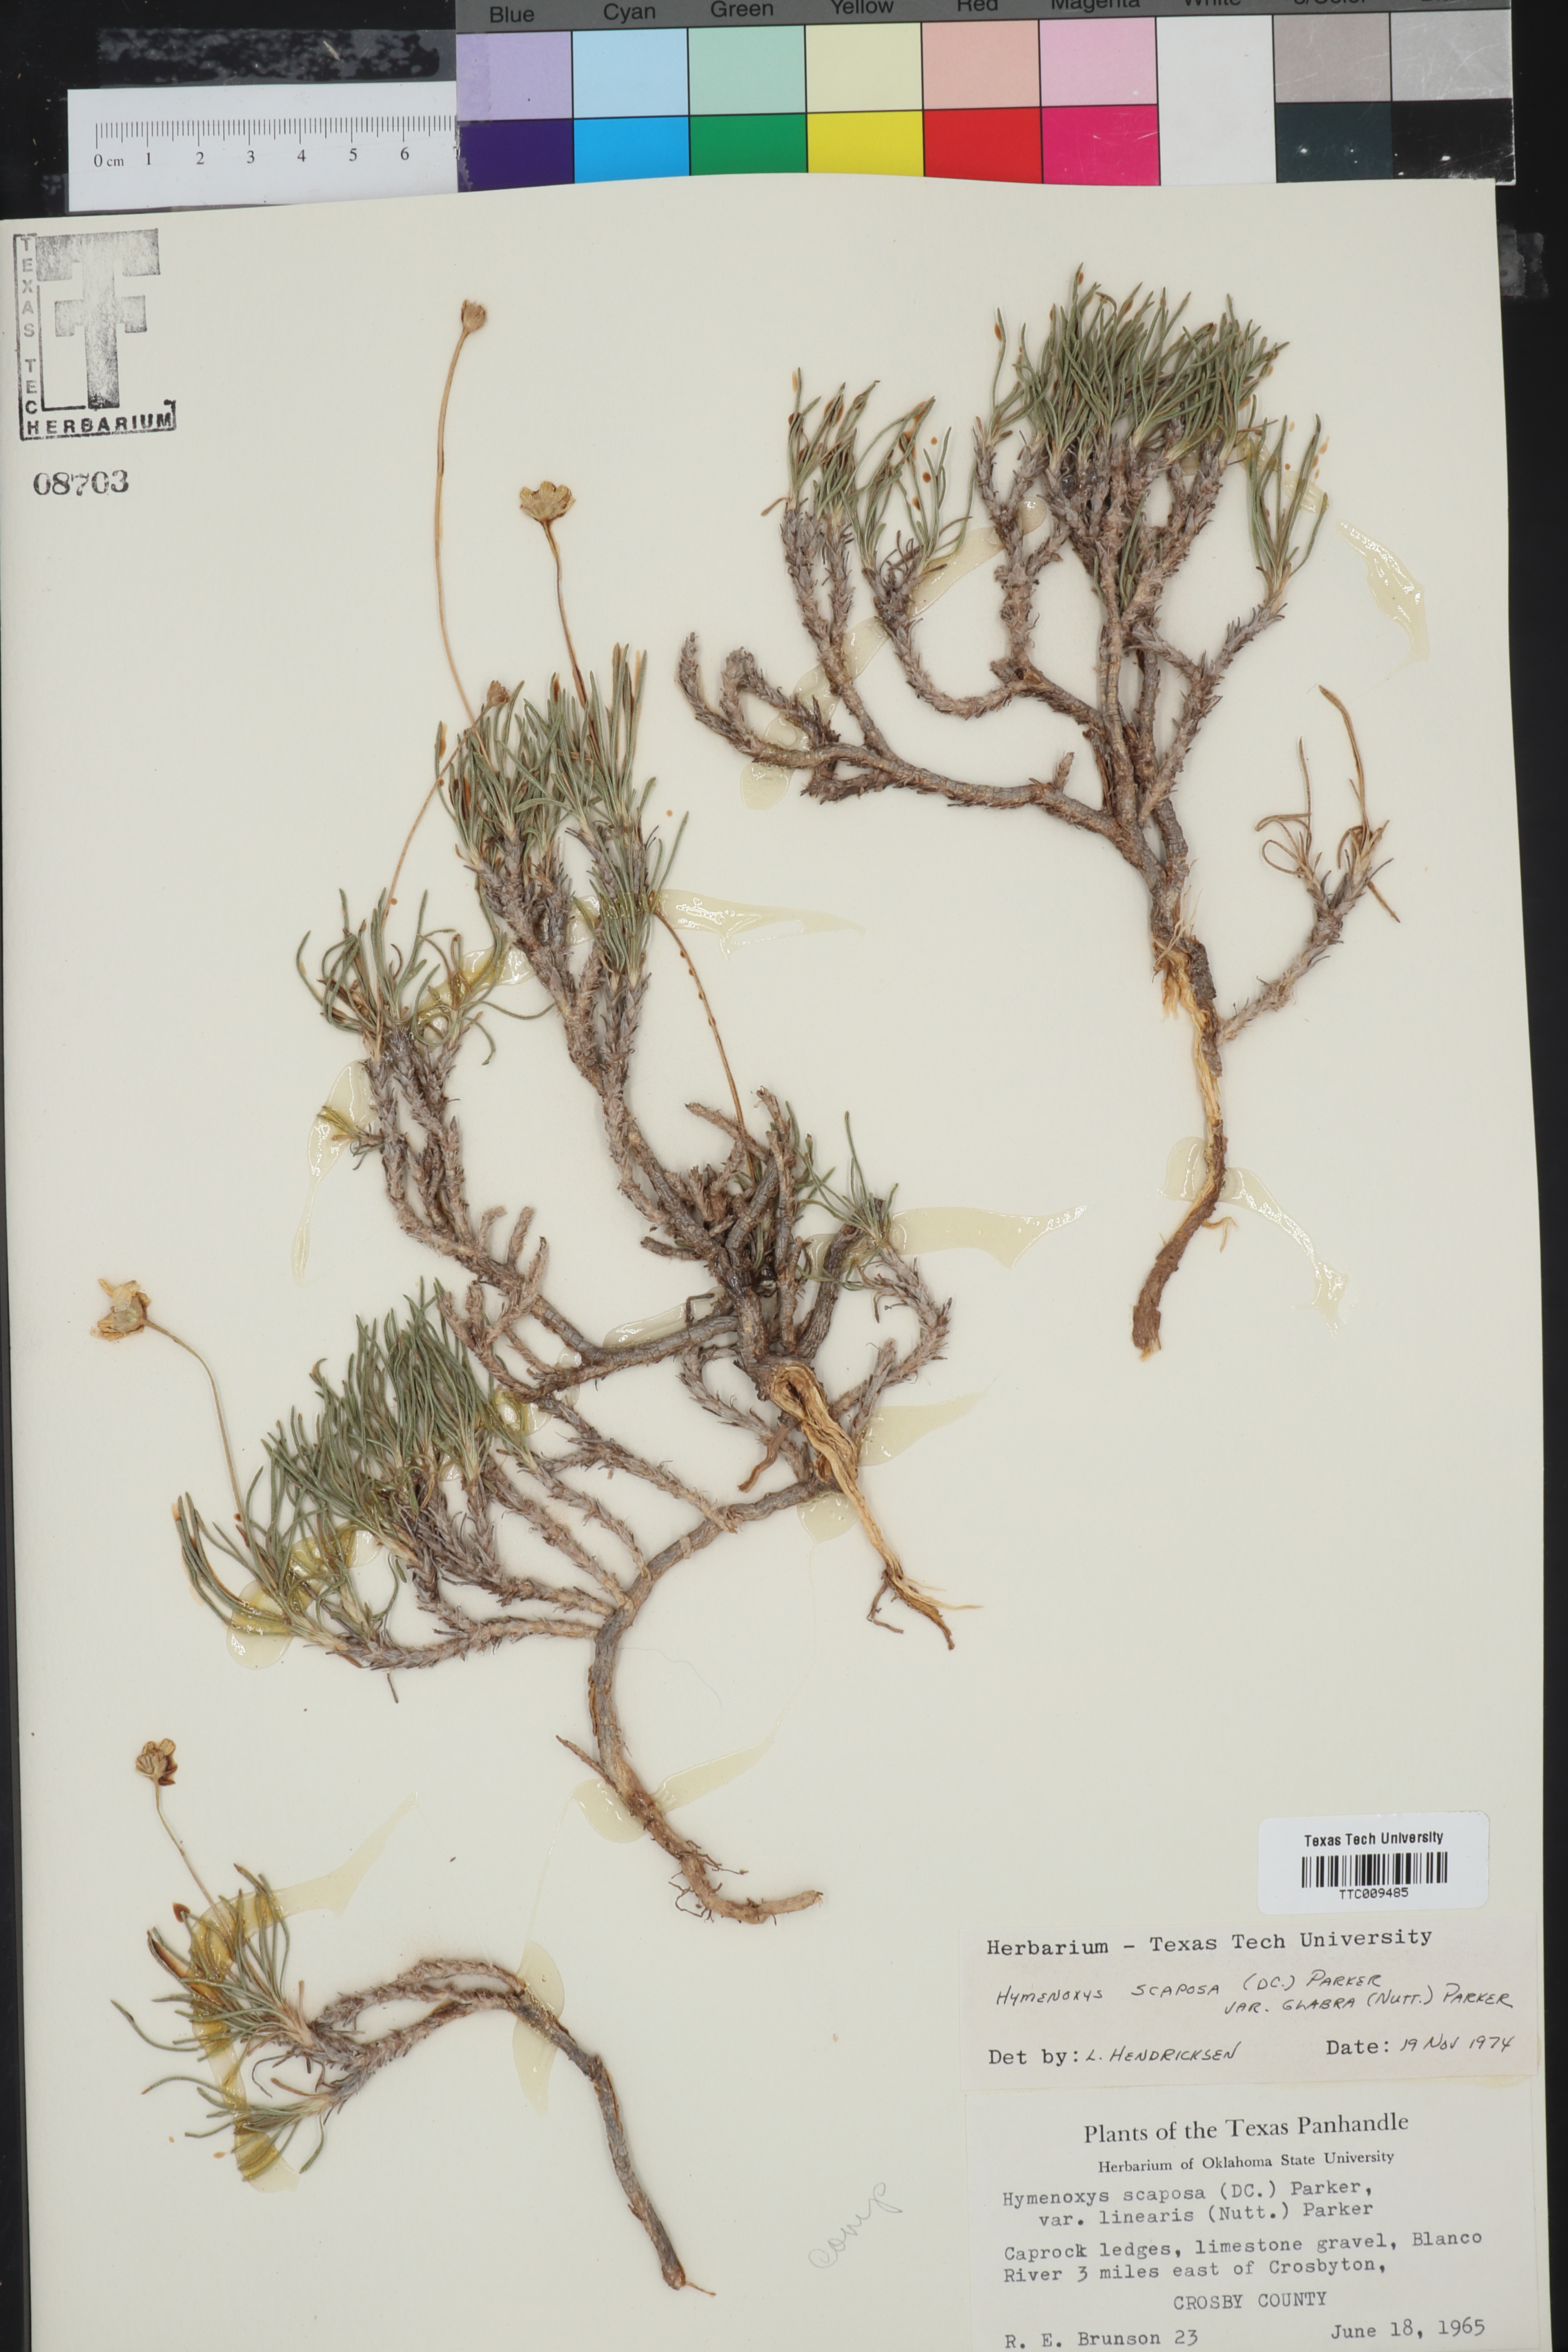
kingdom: Plantae
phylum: Tracheophyta
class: Magnoliopsida
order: Asterales
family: Asteraceae
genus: Tetraneuris
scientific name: Tetraneuris scaposa
